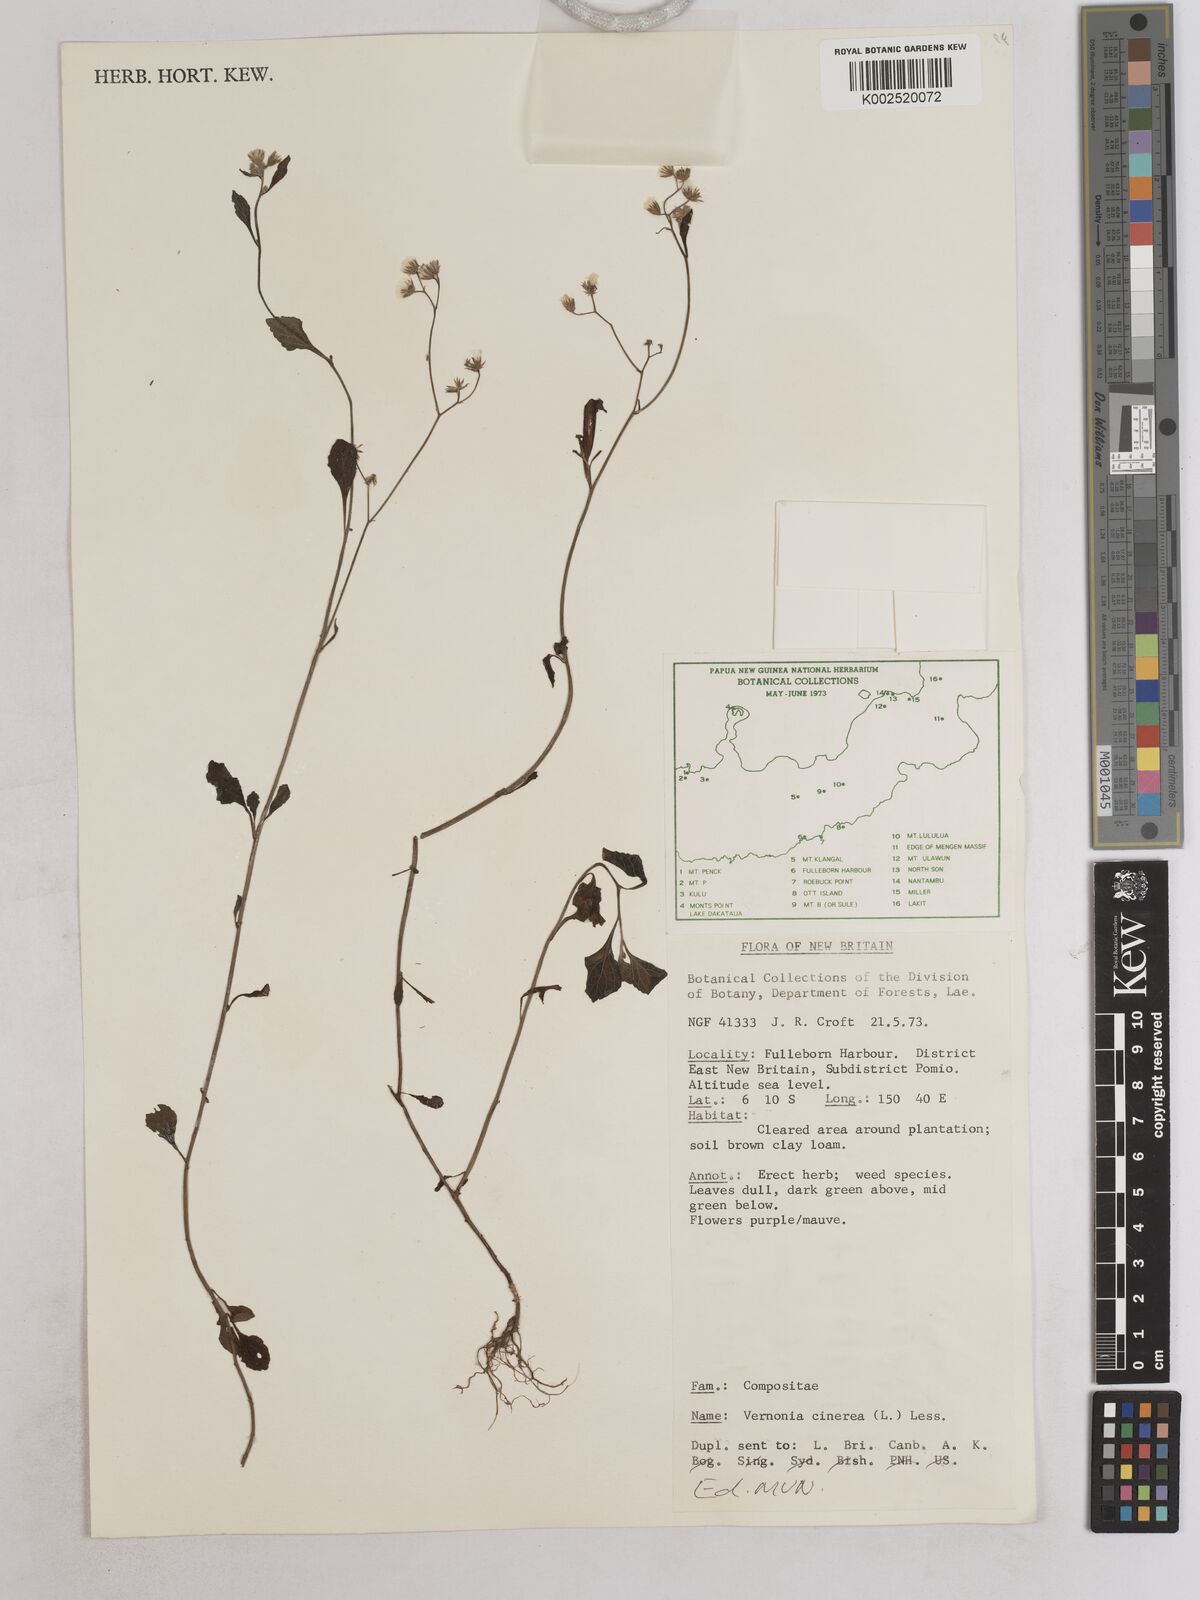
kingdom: Plantae
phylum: Tracheophyta
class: Magnoliopsida
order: Asterales
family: Asteraceae
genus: Cyanthillium
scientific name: Cyanthillium cinereum
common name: Little ironweed
